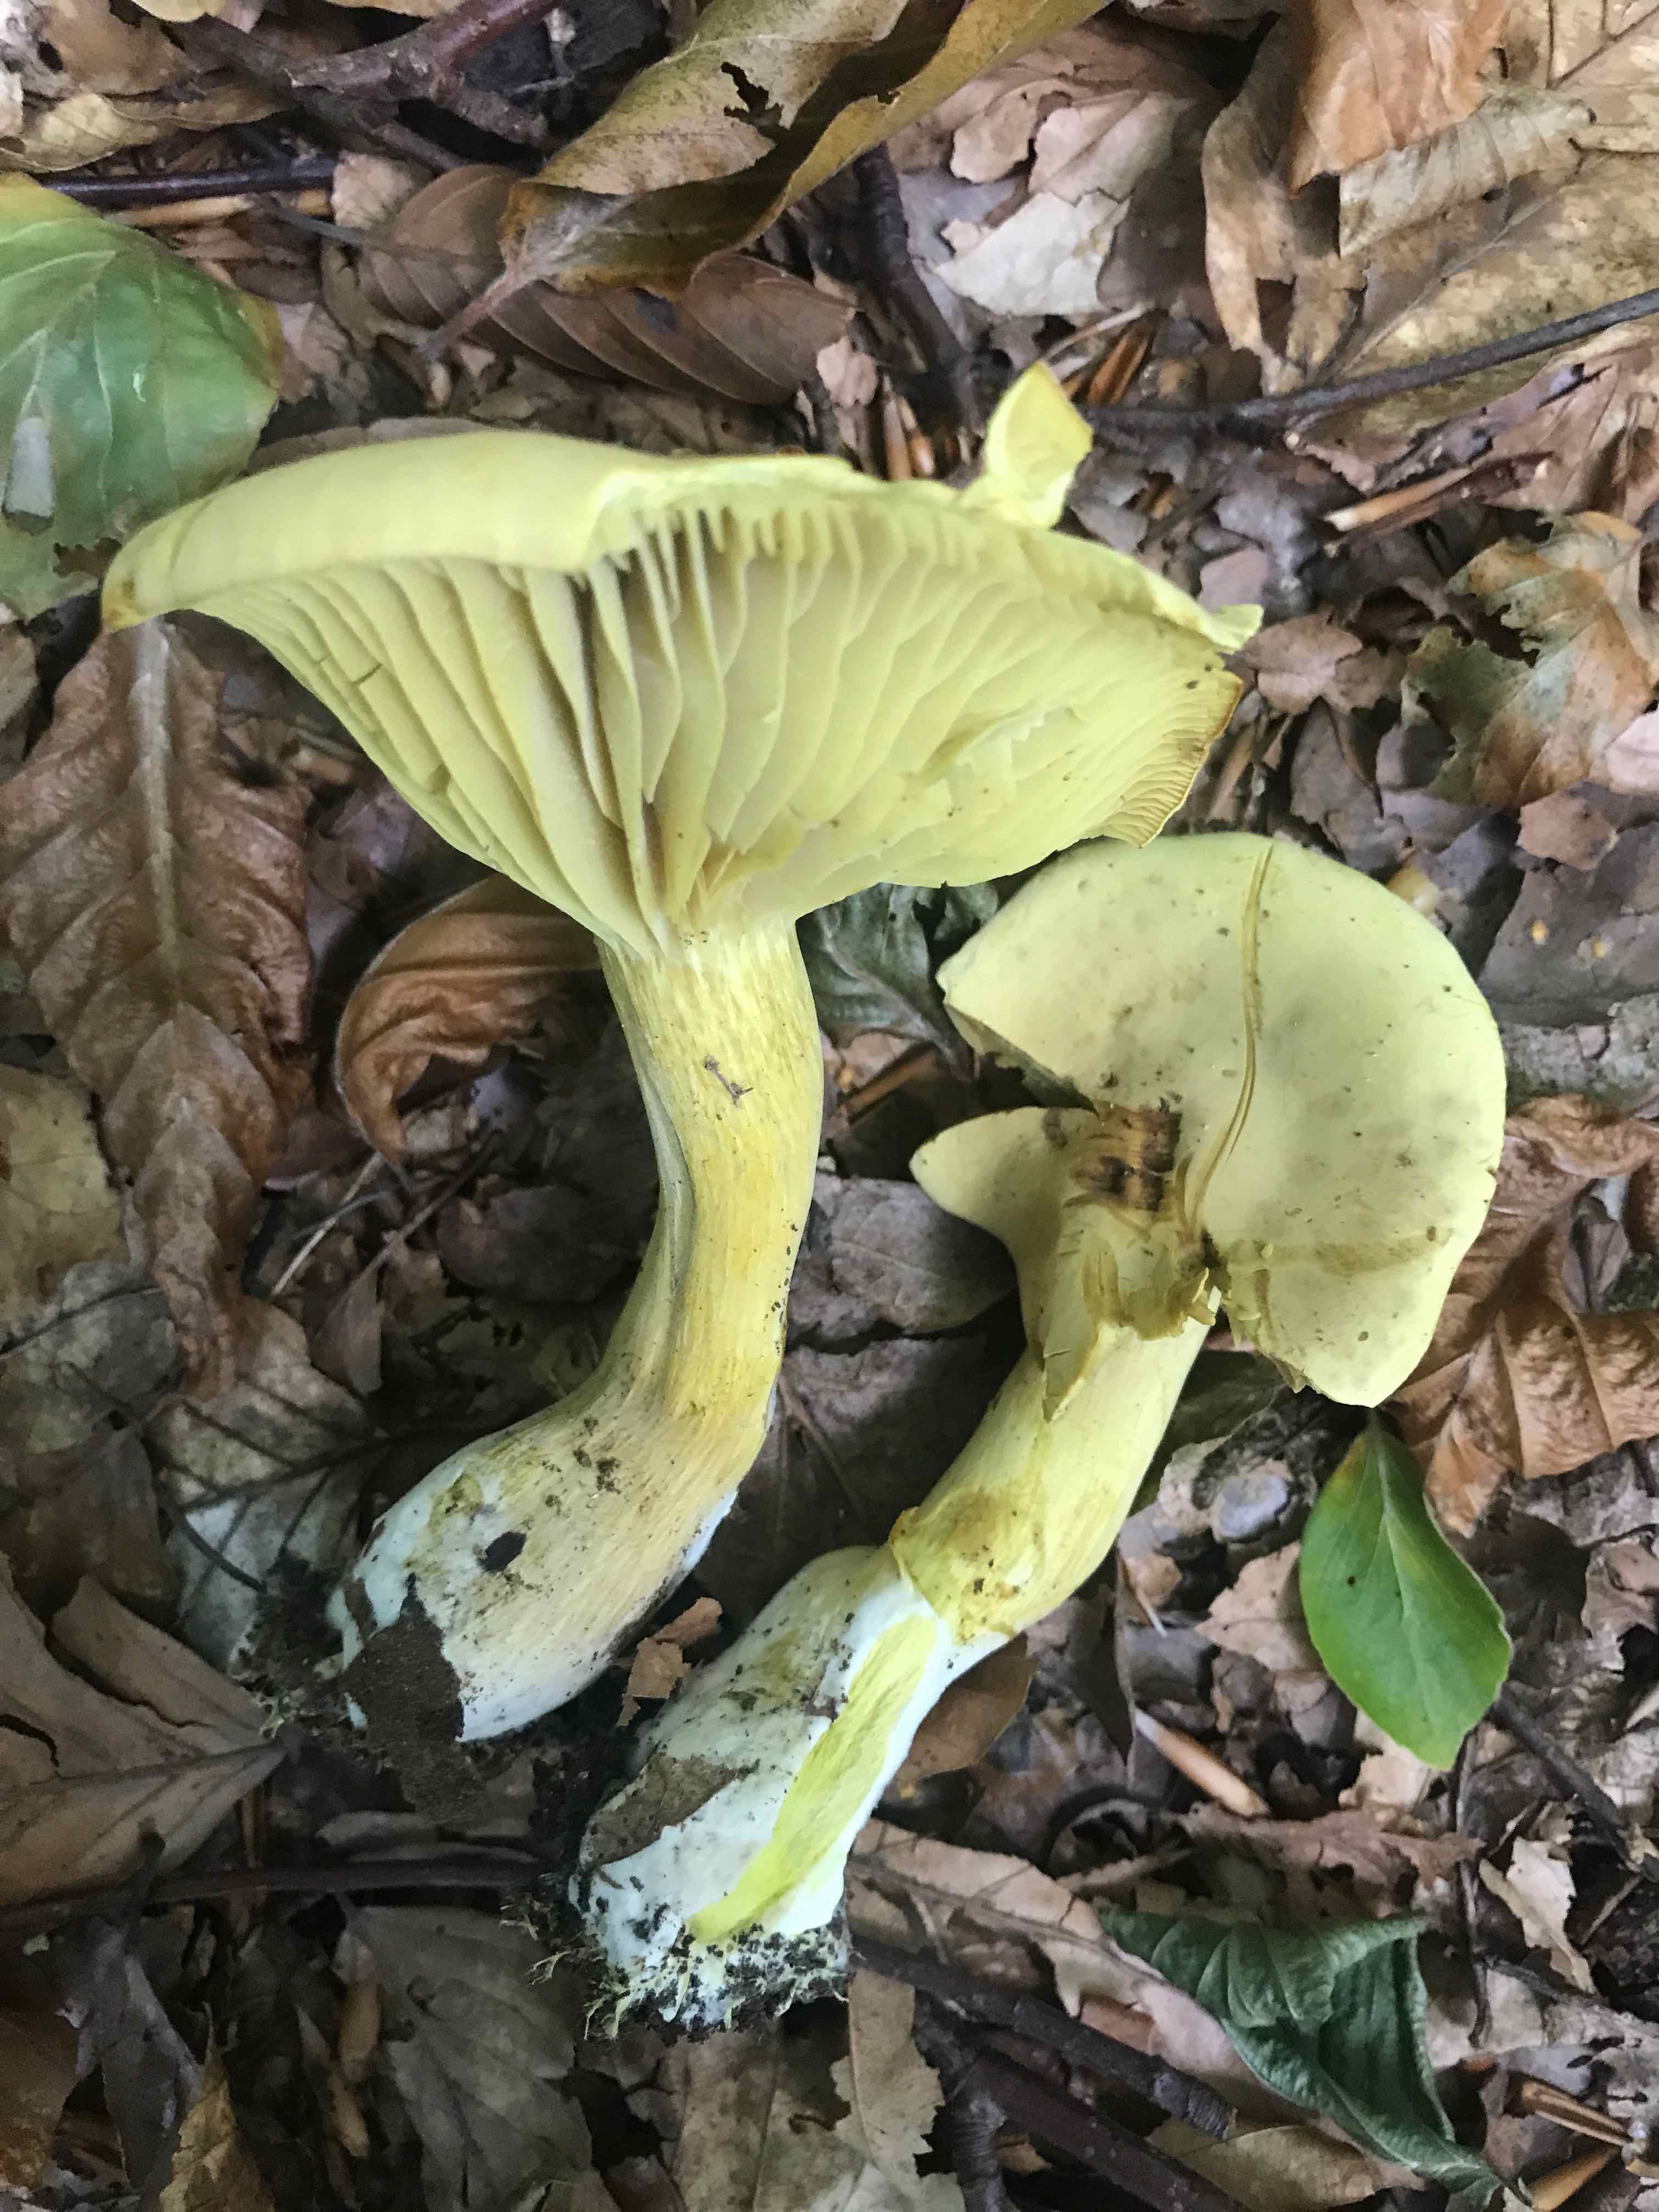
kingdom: Fungi
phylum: Basidiomycota
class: Agaricomycetes
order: Agaricales
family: Tricholomataceae
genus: Tricholoma
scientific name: Tricholoma sulphureum
